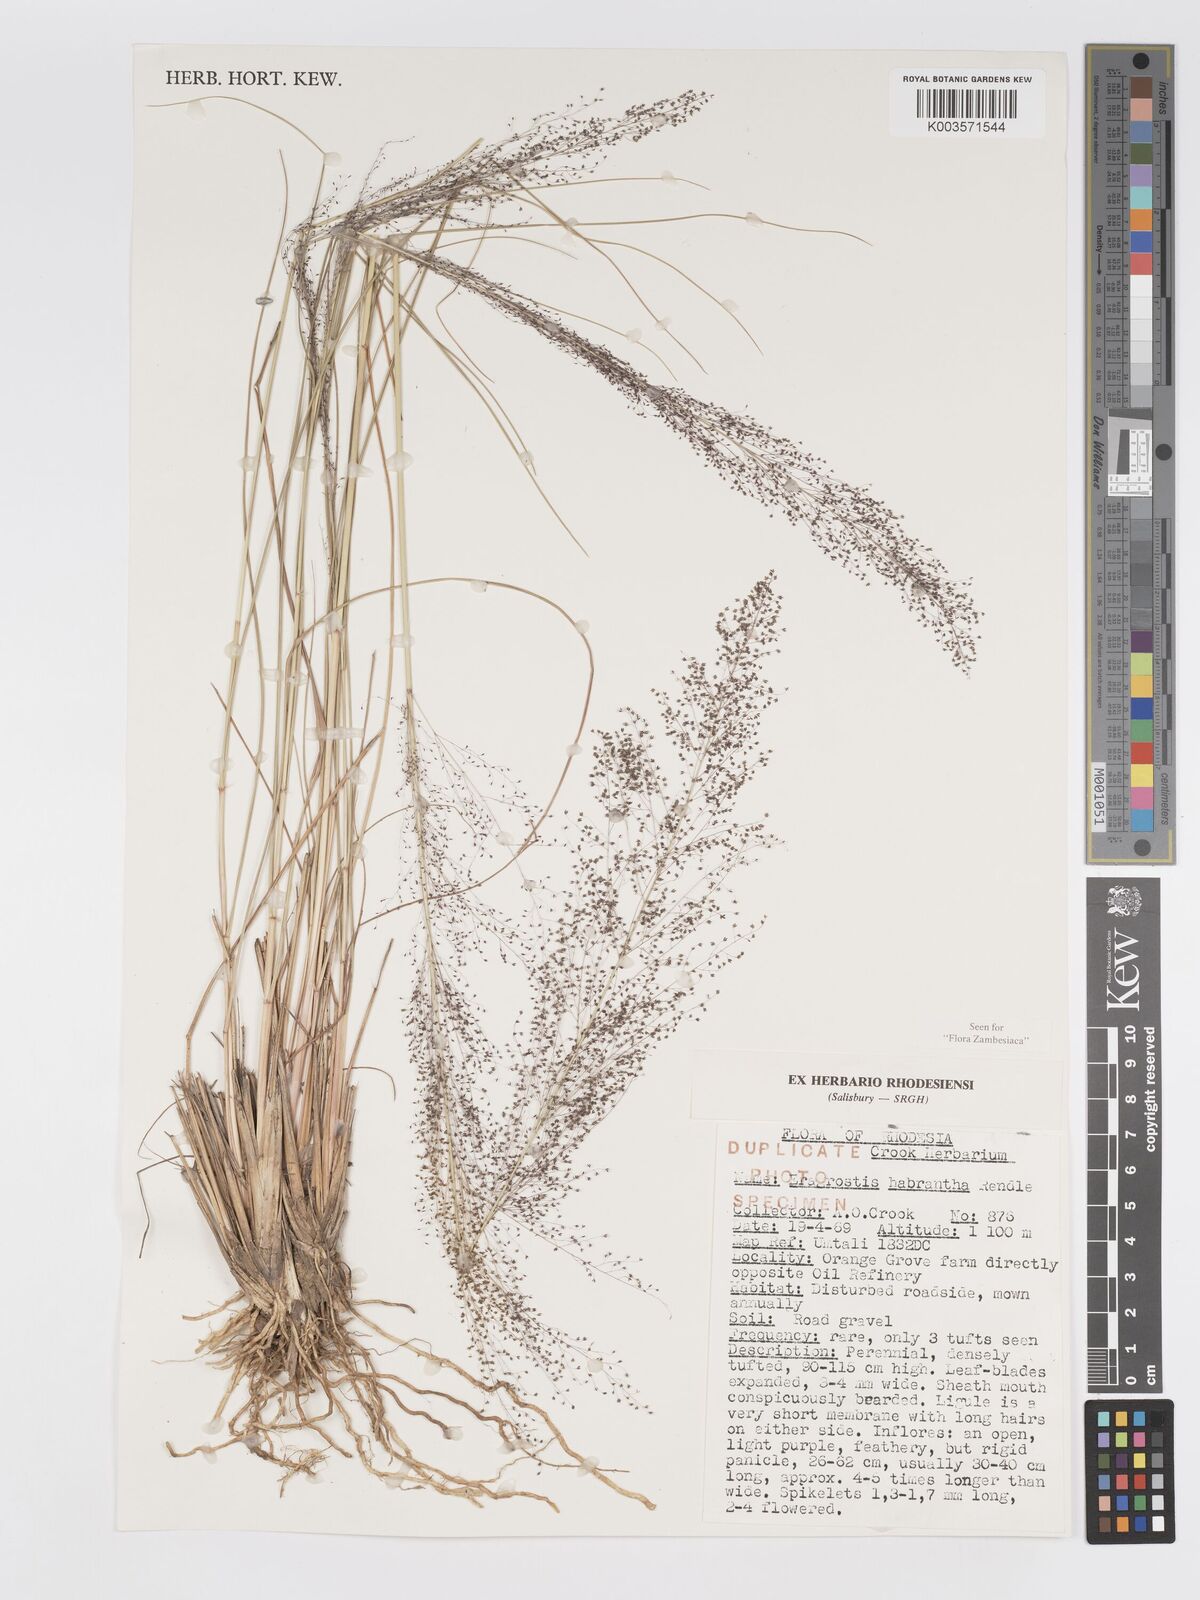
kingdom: Plantae
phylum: Tracheophyta
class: Liliopsida
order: Poales
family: Poaceae
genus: Eragrostis
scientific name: Eragrostis habrantha
